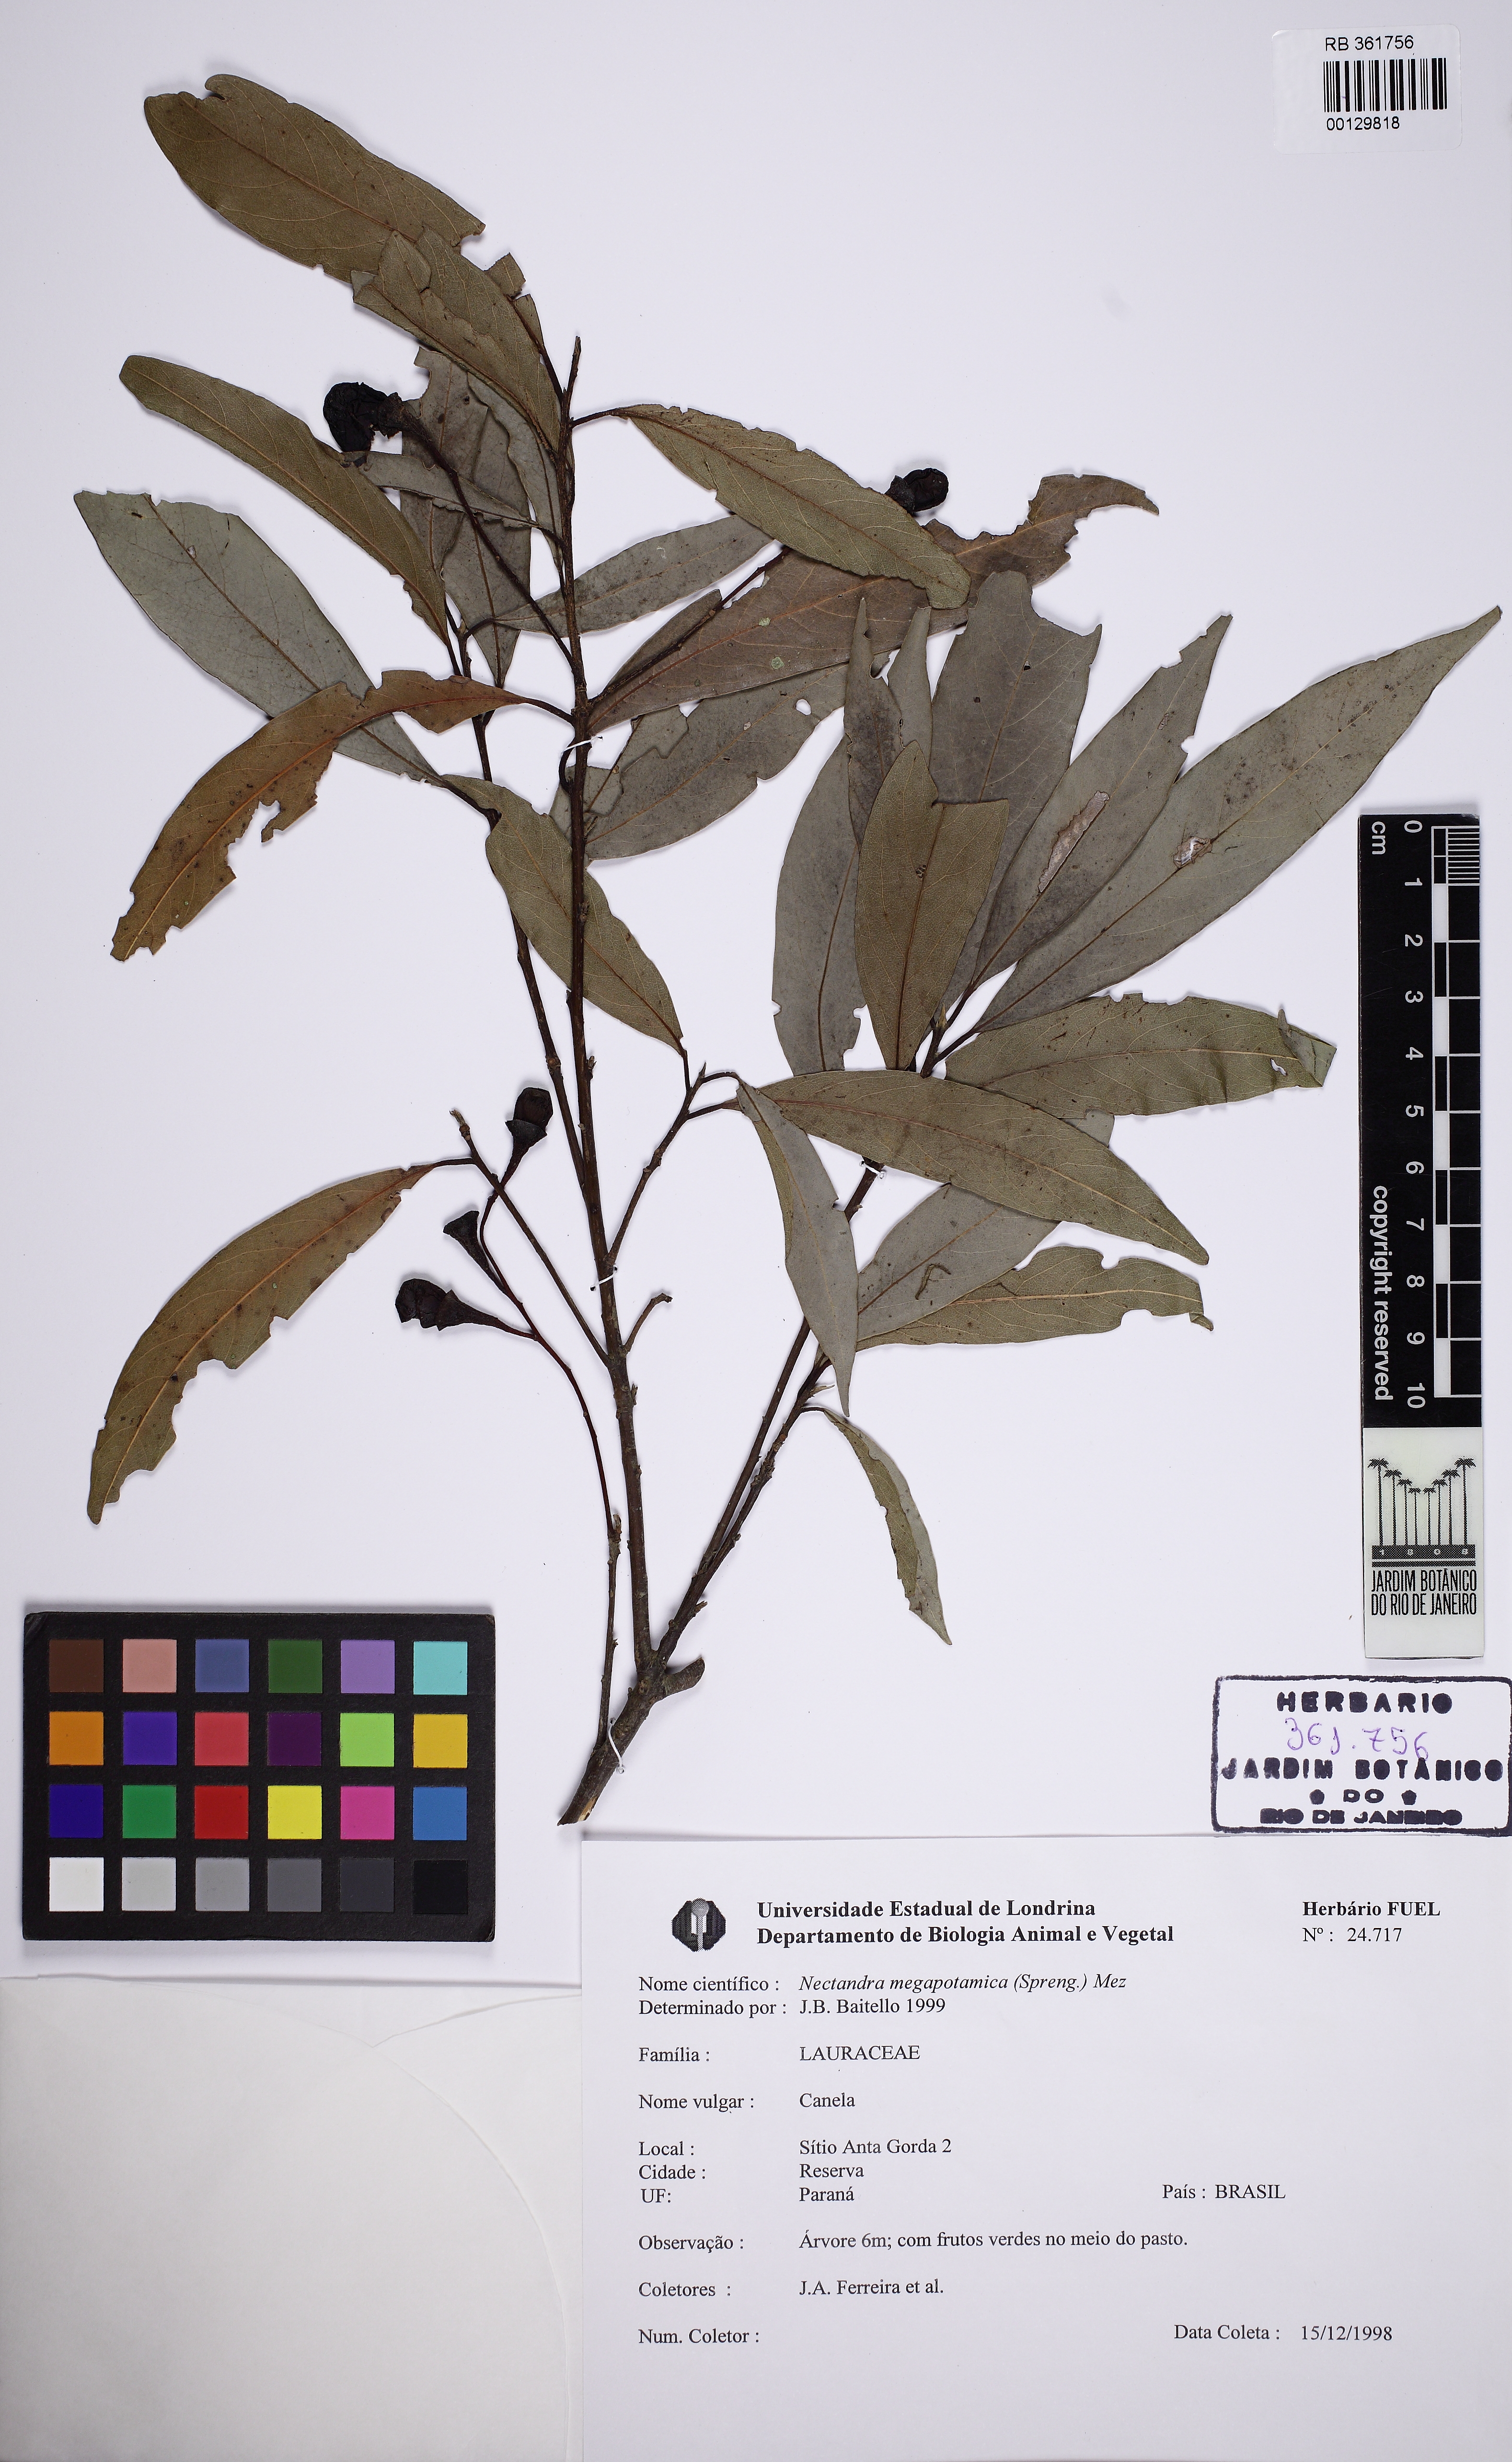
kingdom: Plantae
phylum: Tracheophyta
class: Magnoliopsida
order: Laurales
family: Lauraceae
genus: Nectandra
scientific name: Nectandra megapotamica
